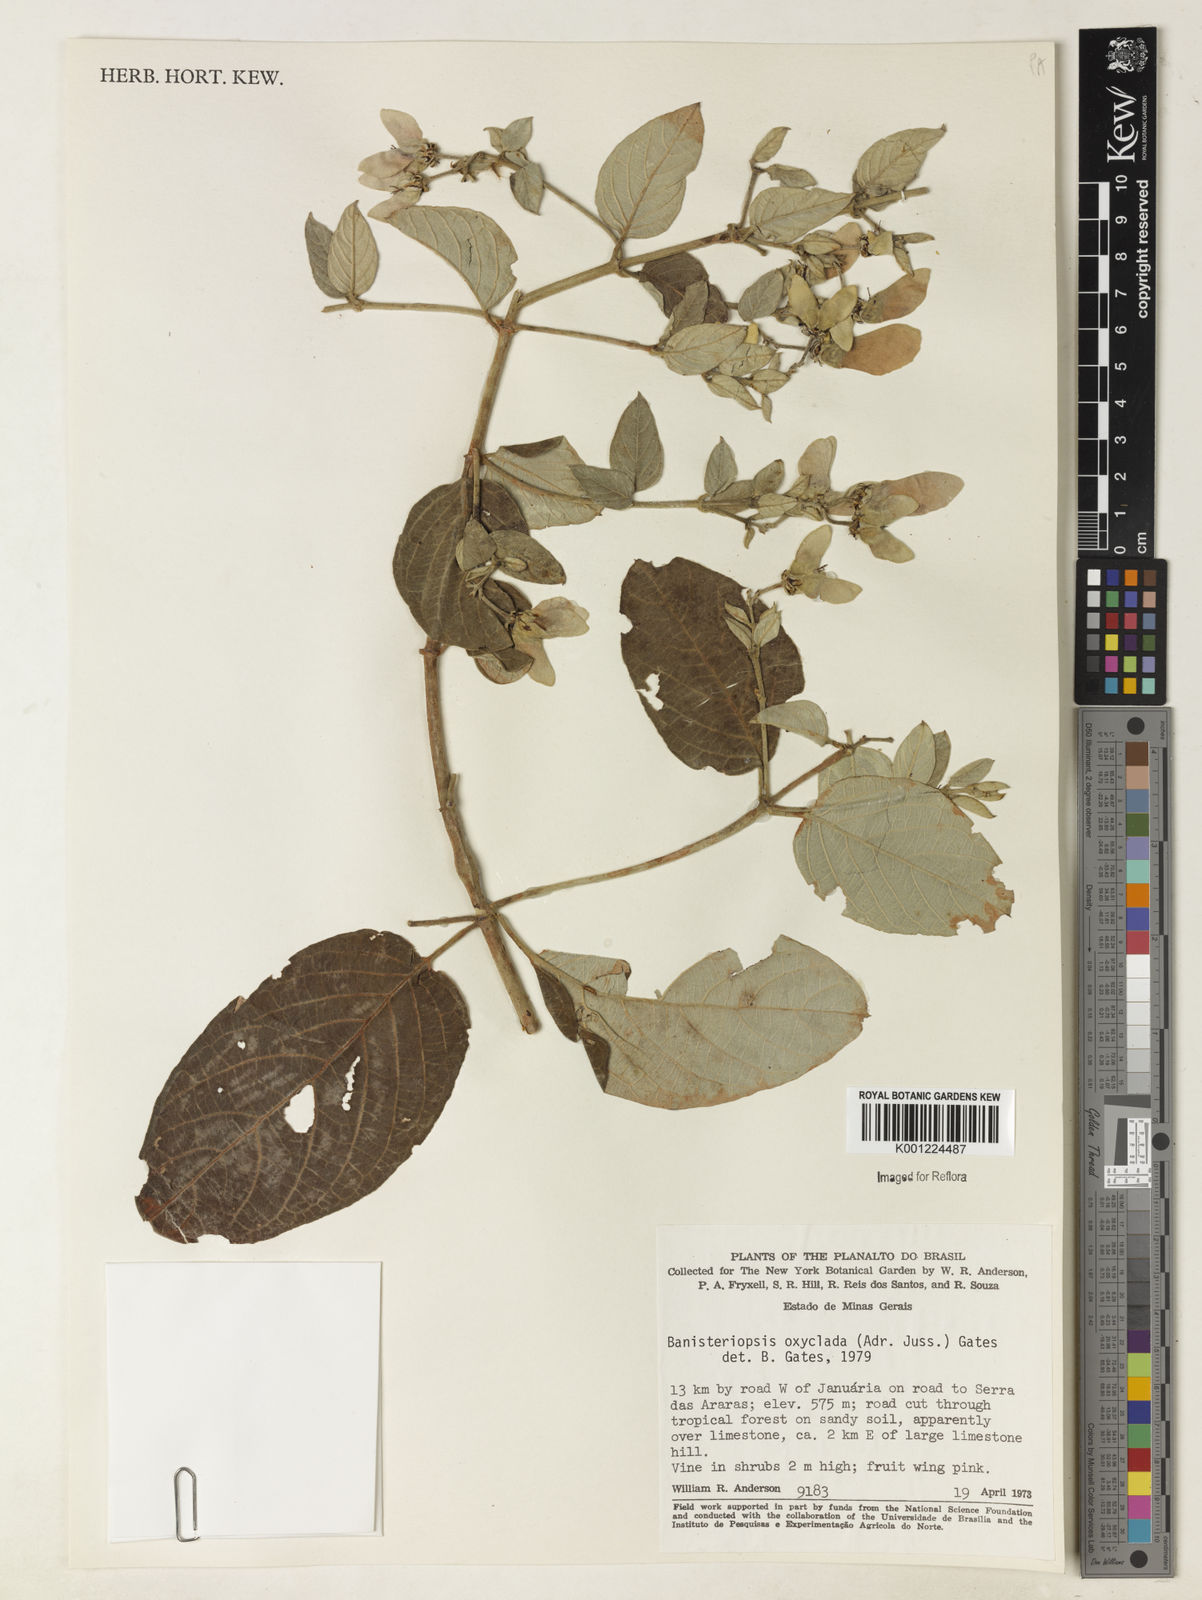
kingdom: Plantae
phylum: Tracheophyta
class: Magnoliopsida
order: Malpighiales
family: Malpighiaceae
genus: Banisteriopsis
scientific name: Banisteriopsis oxyclada
